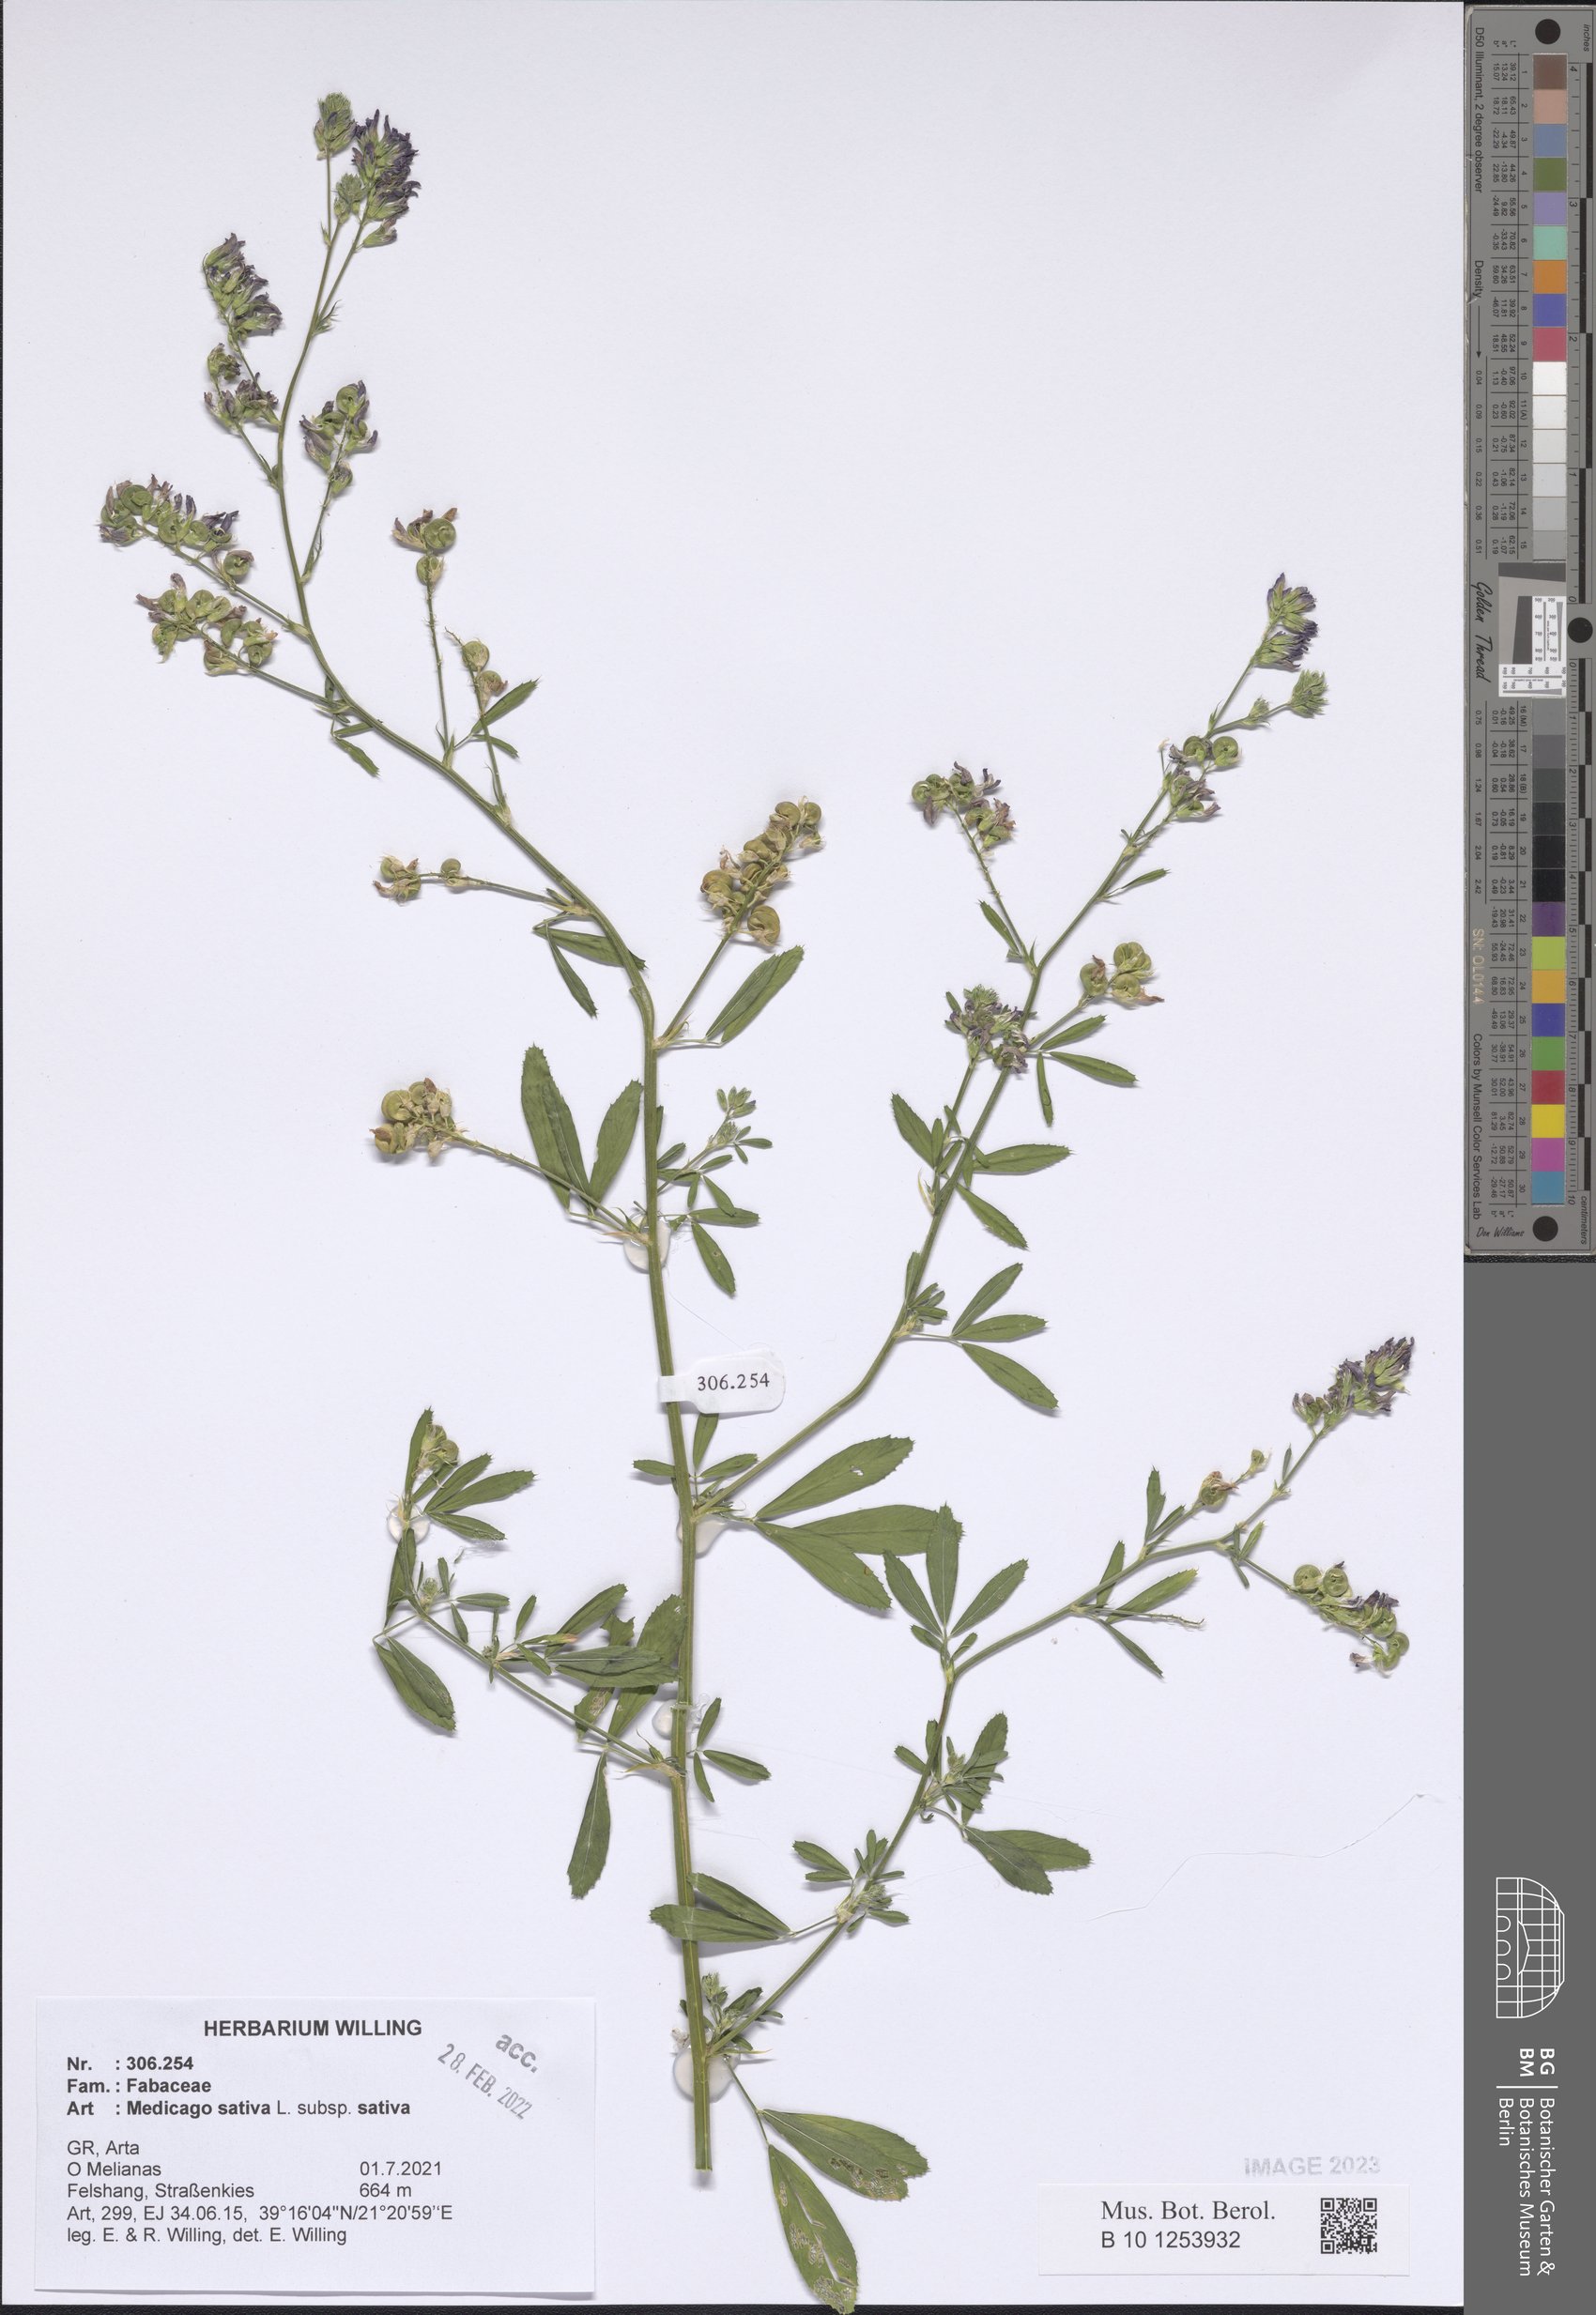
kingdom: Plantae
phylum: Tracheophyta
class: Magnoliopsida
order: Fabales
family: Fabaceae
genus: Medicago
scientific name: Medicago sativa
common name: Alfalfa
